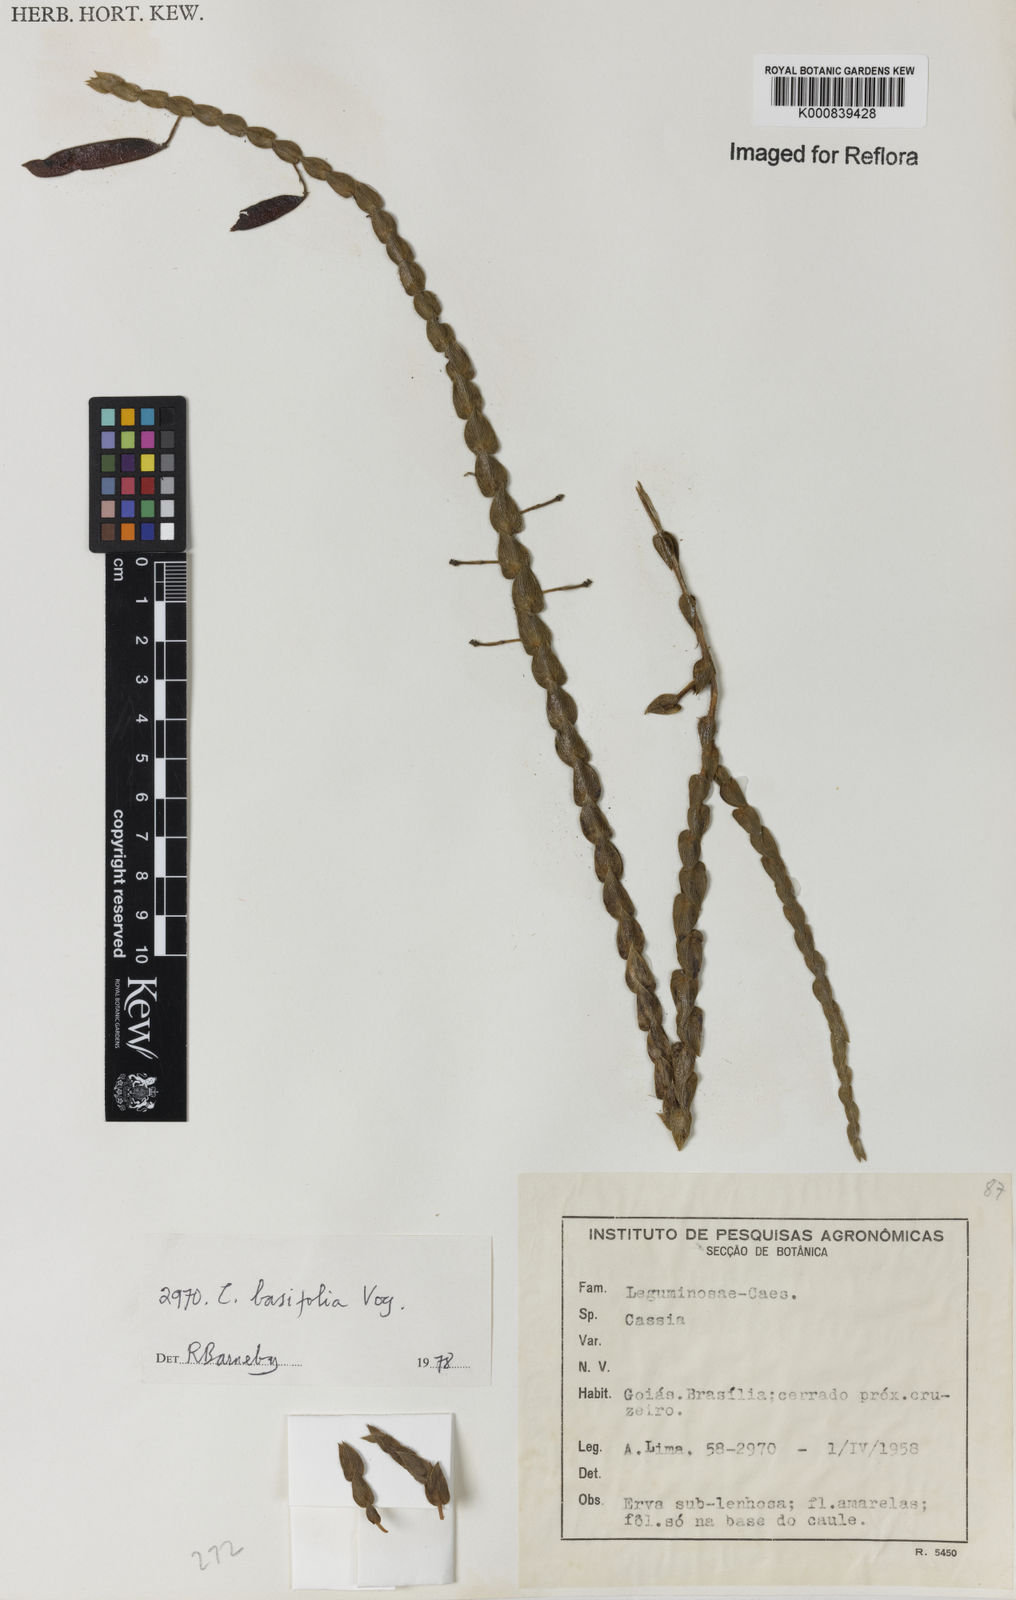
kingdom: Plantae
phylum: Tracheophyta
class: Magnoliopsida
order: Fabales
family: Fabaceae
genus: Chamaecrista
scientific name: Chamaecrista basifolia
